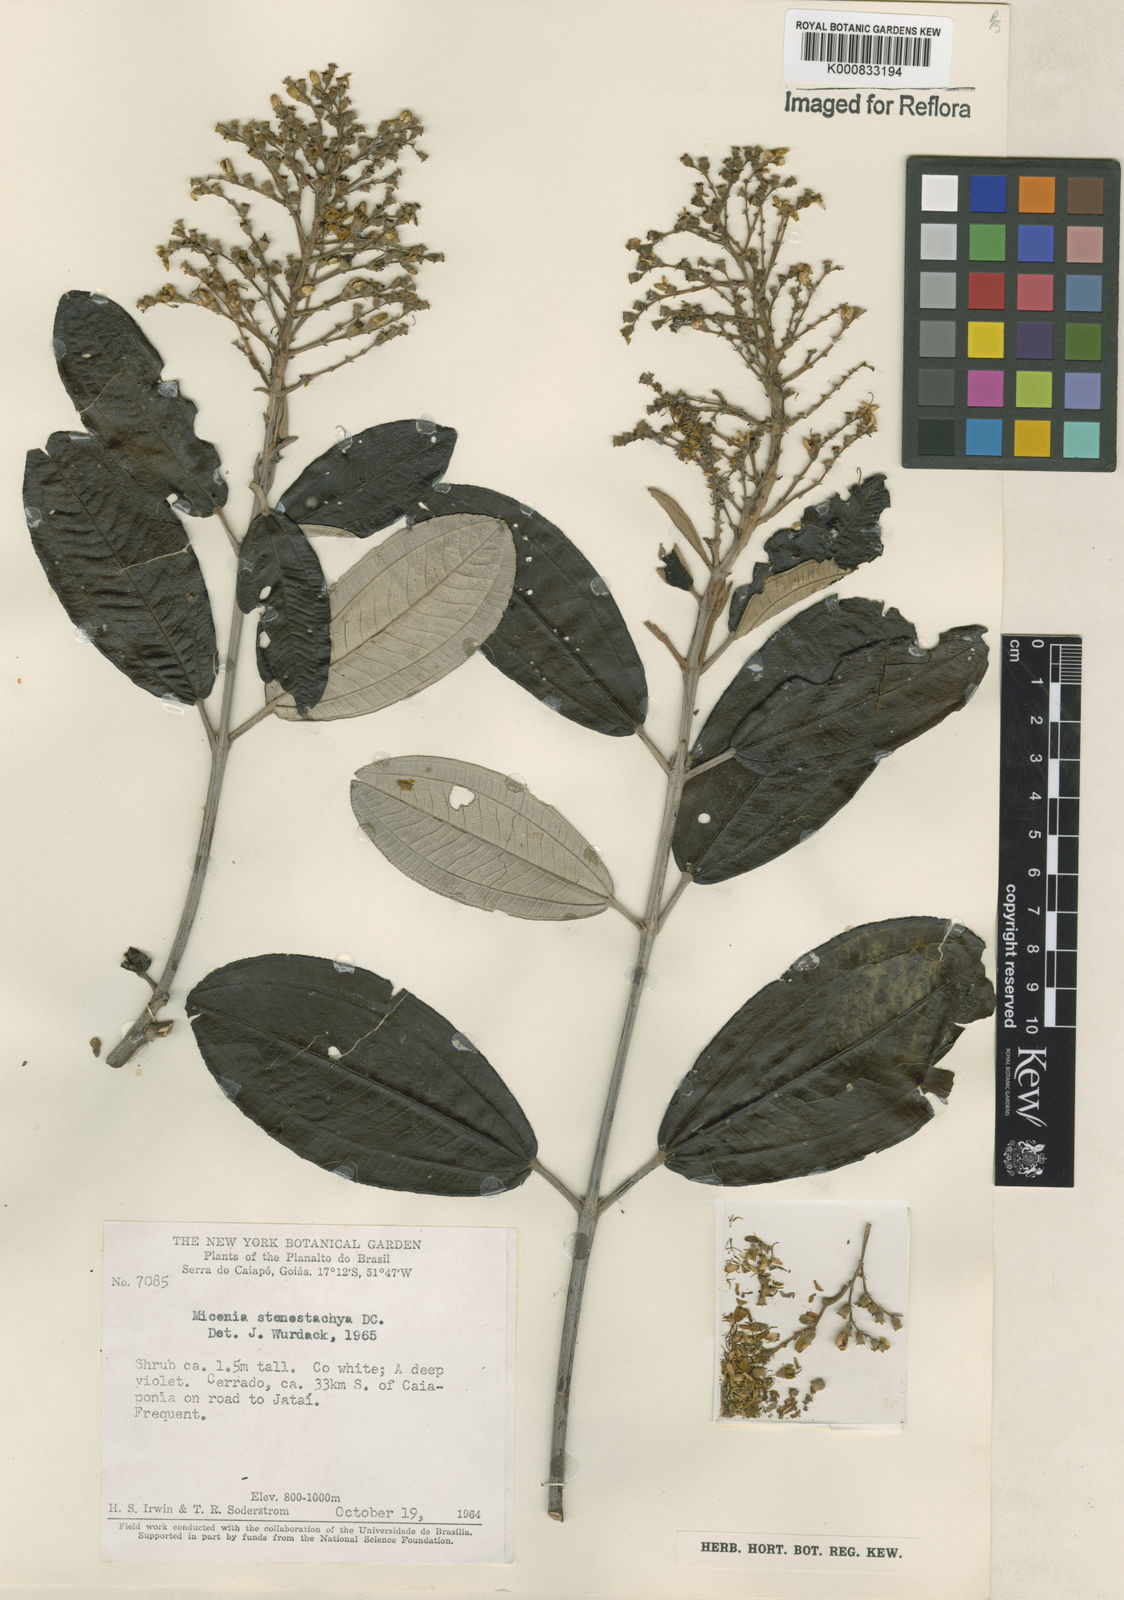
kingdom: Plantae
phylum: Tracheophyta
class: Magnoliopsida
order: Myrtales
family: Melastomataceae
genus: Miconia
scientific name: Miconia stenostachya
